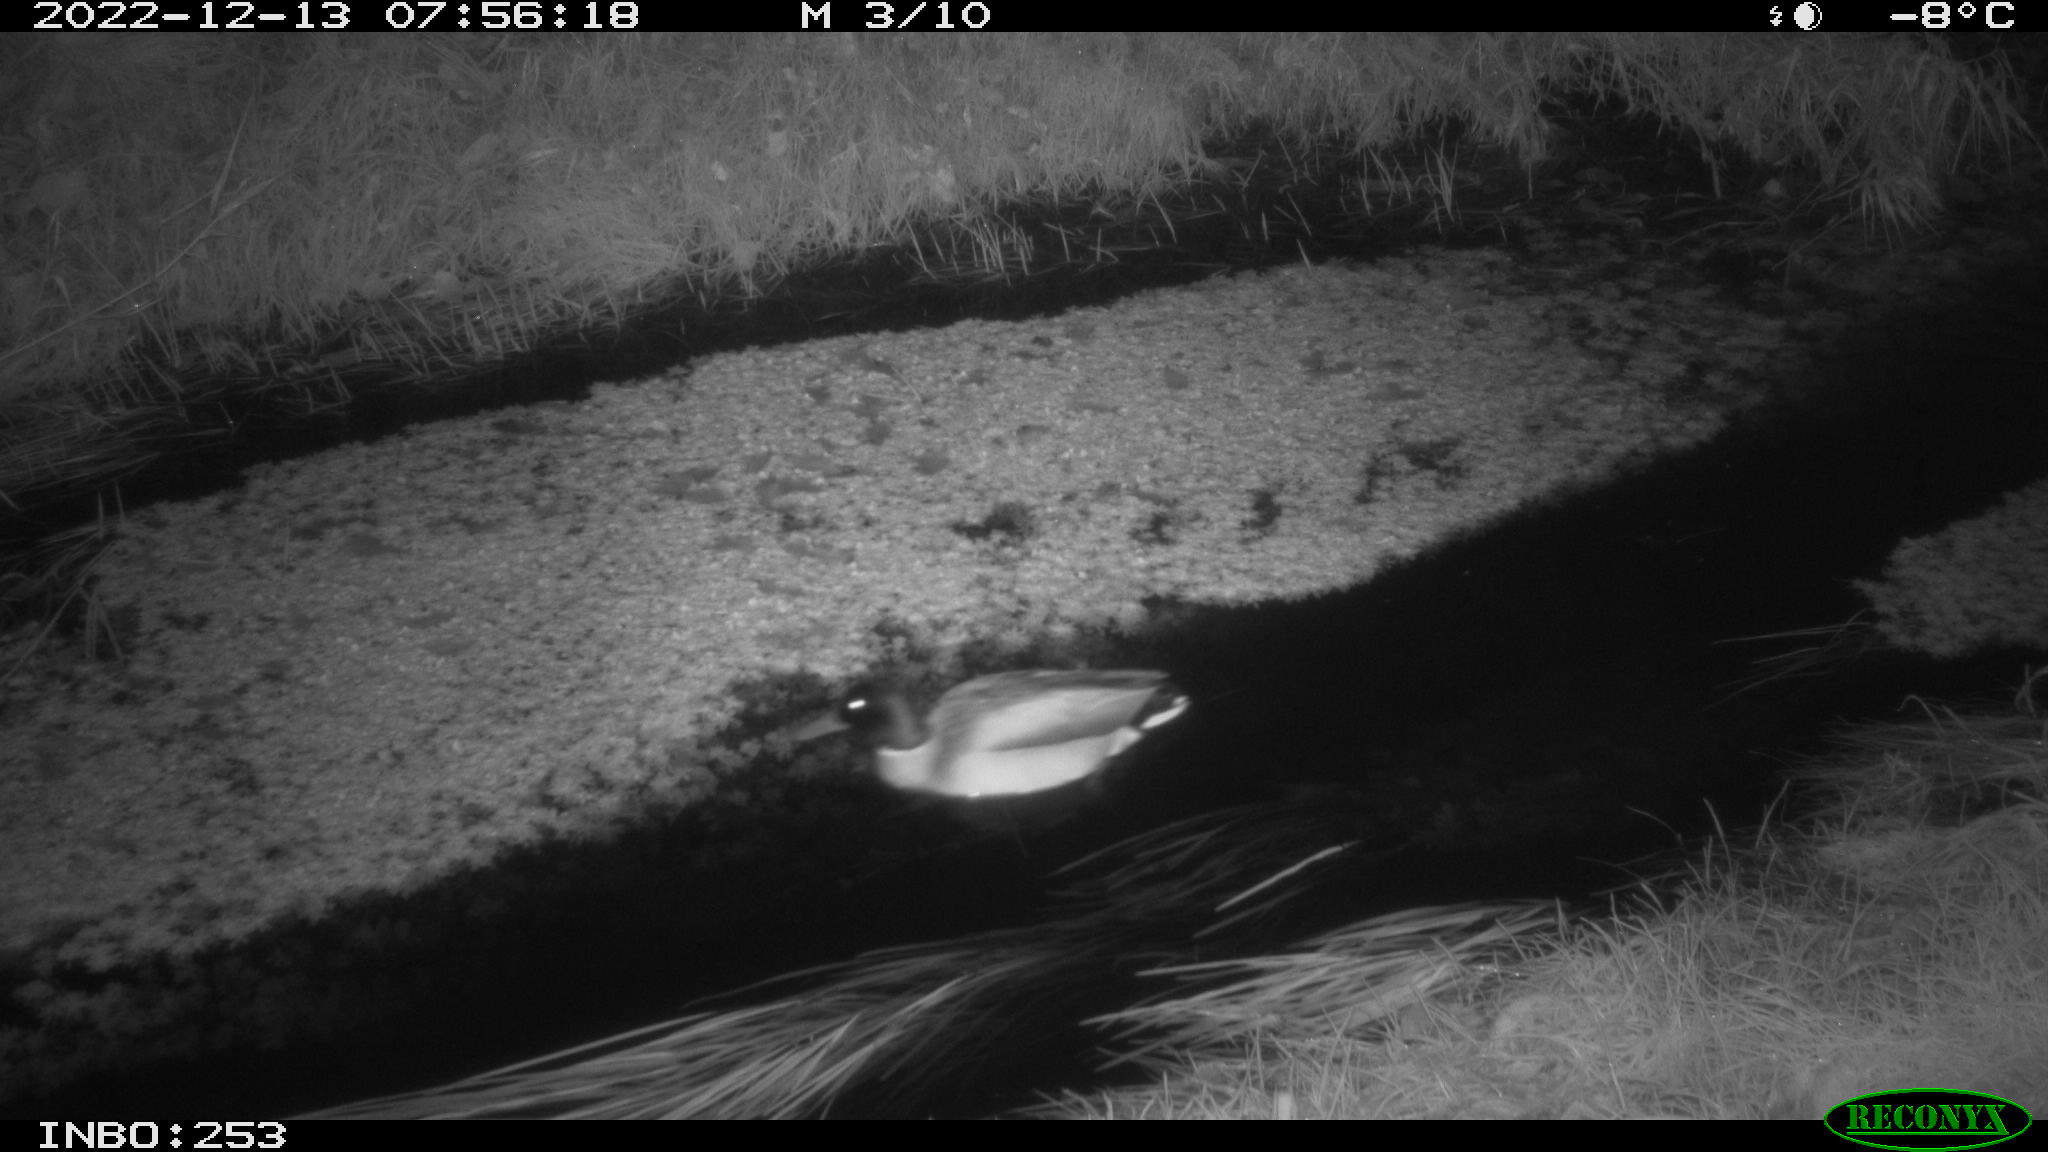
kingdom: Animalia
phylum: Chordata
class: Aves
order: Anseriformes
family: Anatidae
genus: Anas
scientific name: Anas
